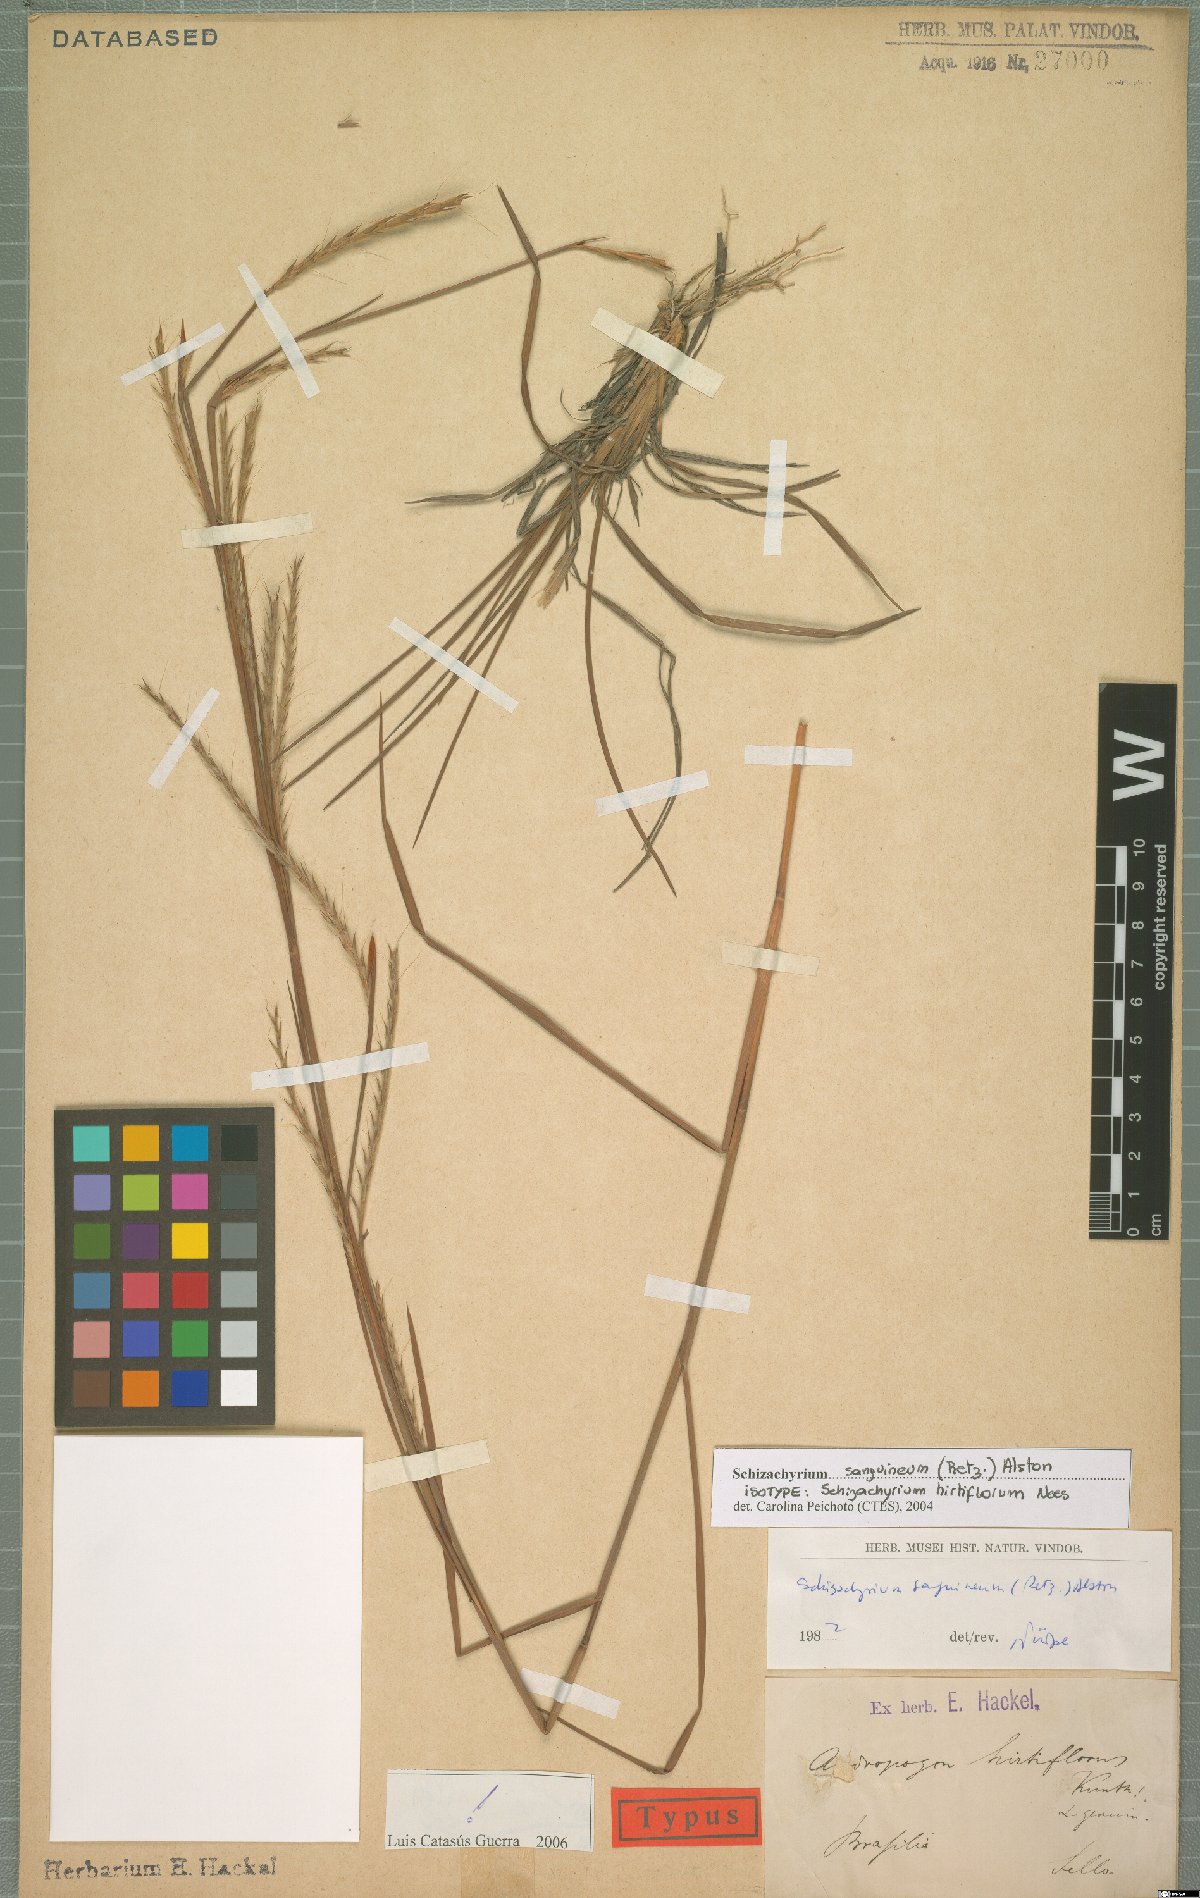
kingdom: Plantae
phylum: Tracheophyta
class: Liliopsida
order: Poales
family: Poaceae
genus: Schizachyrium
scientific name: Schizachyrium sanguineum
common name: Crimson bluestem
